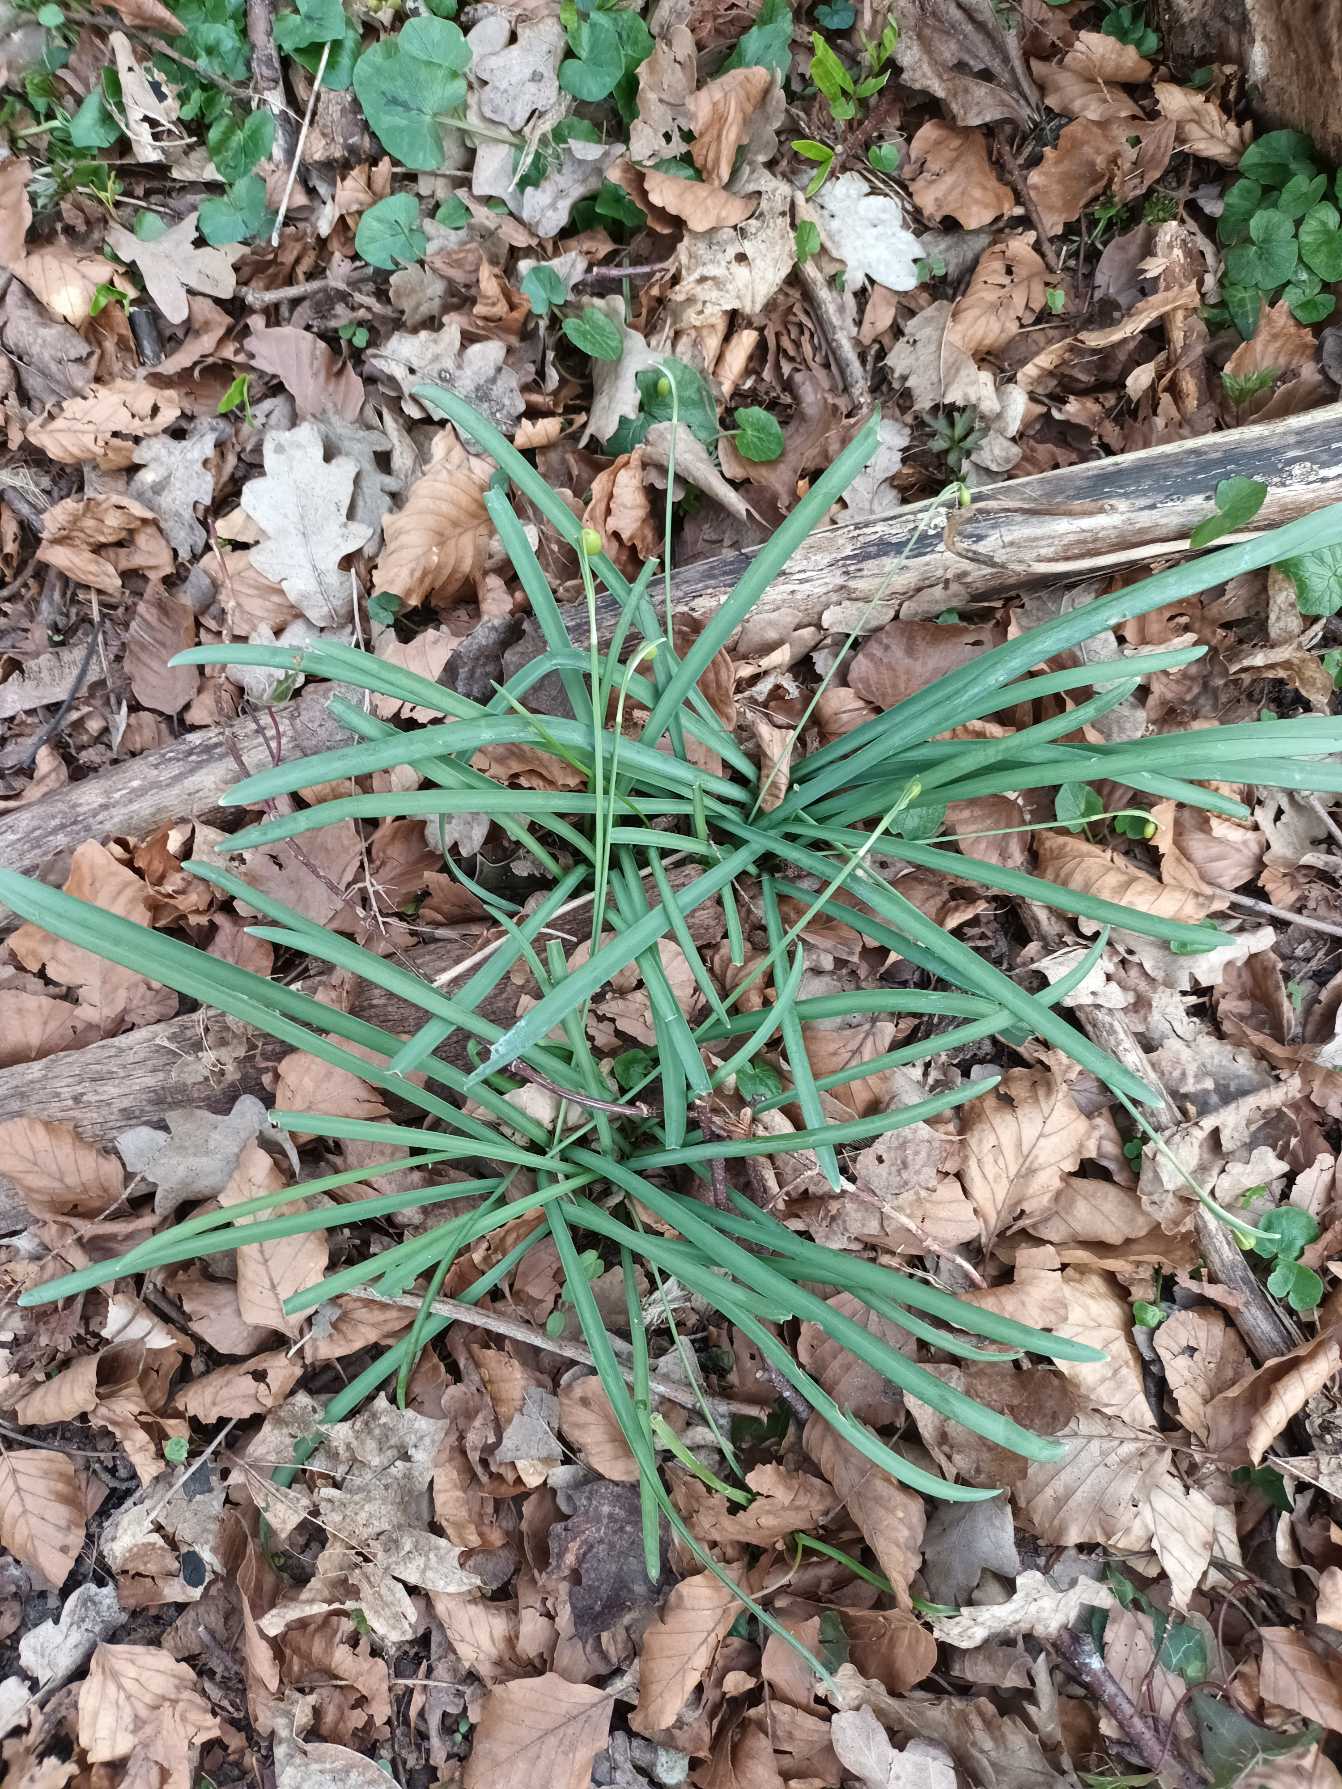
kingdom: Plantae
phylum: Tracheophyta
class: Liliopsida
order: Asparagales
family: Amaryllidaceae
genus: Galanthus
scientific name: Galanthus nivalis
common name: Vintergæk
